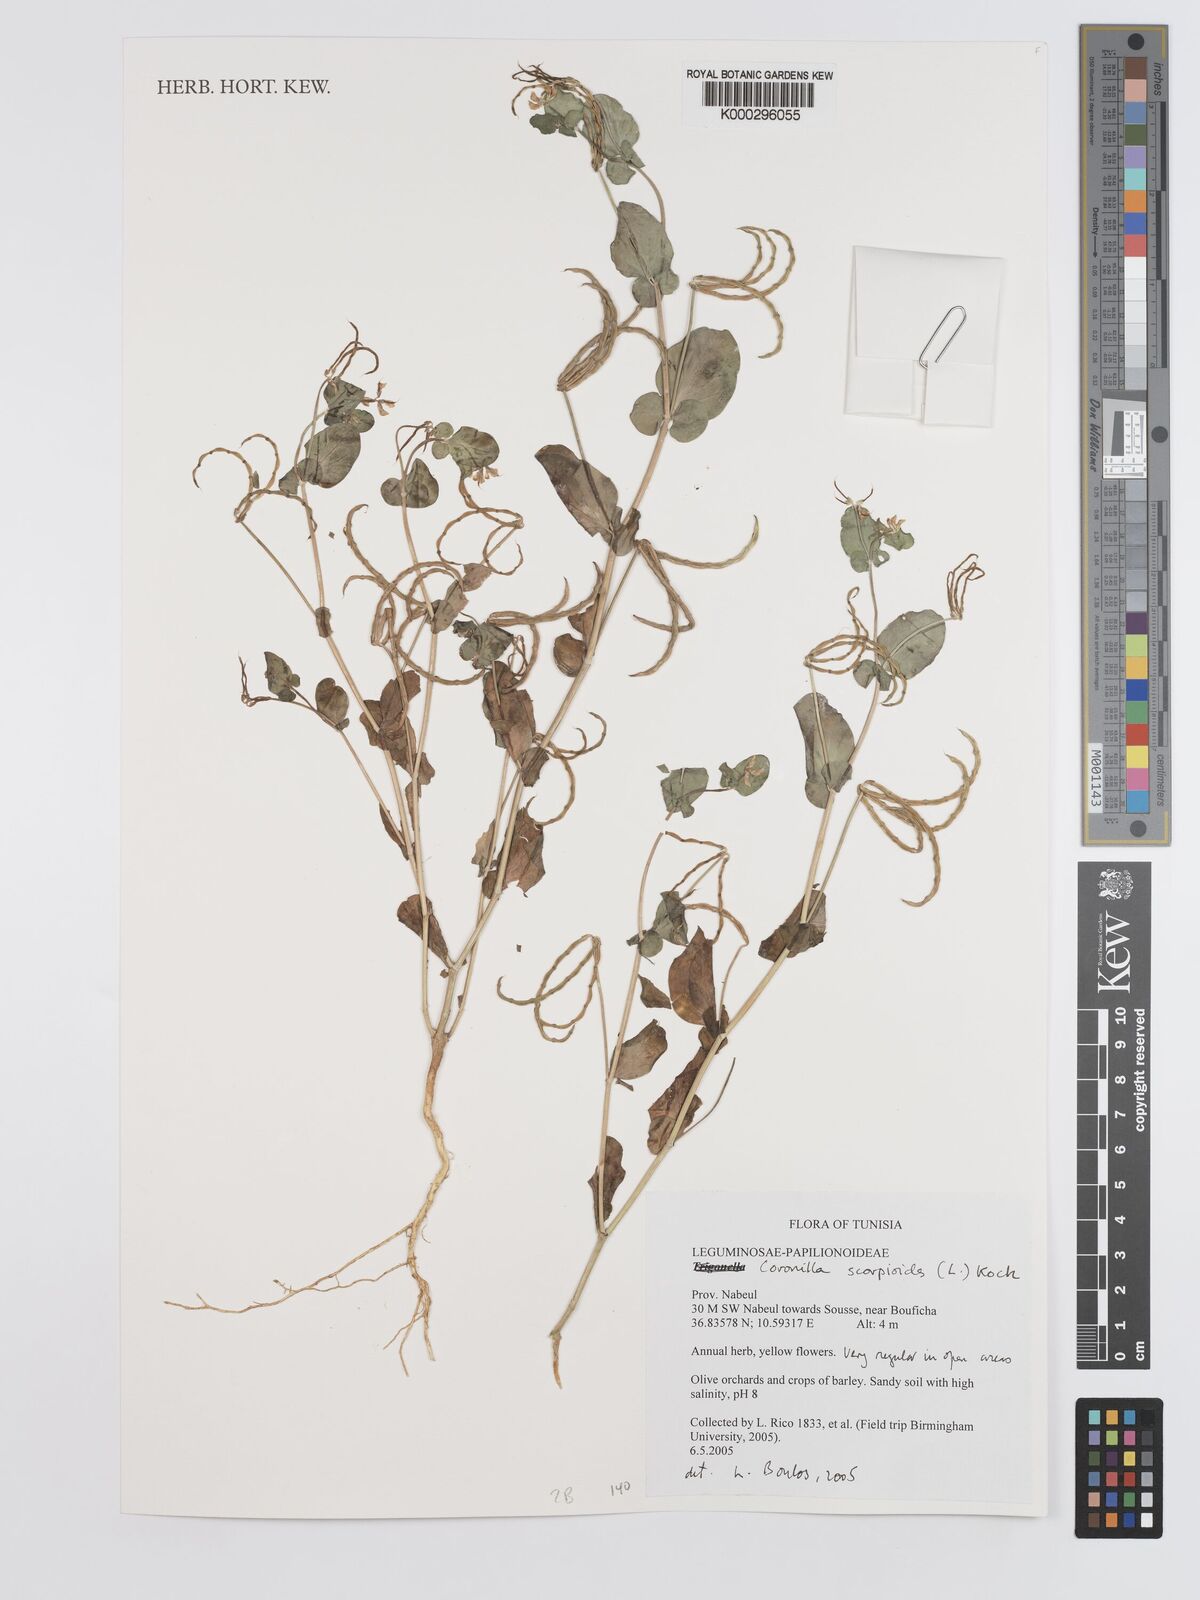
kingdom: Plantae
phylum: Tracheophyta
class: Magnoliopsida
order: Fabales
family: Fabaceae
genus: Coronilla
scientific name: Coronilla
